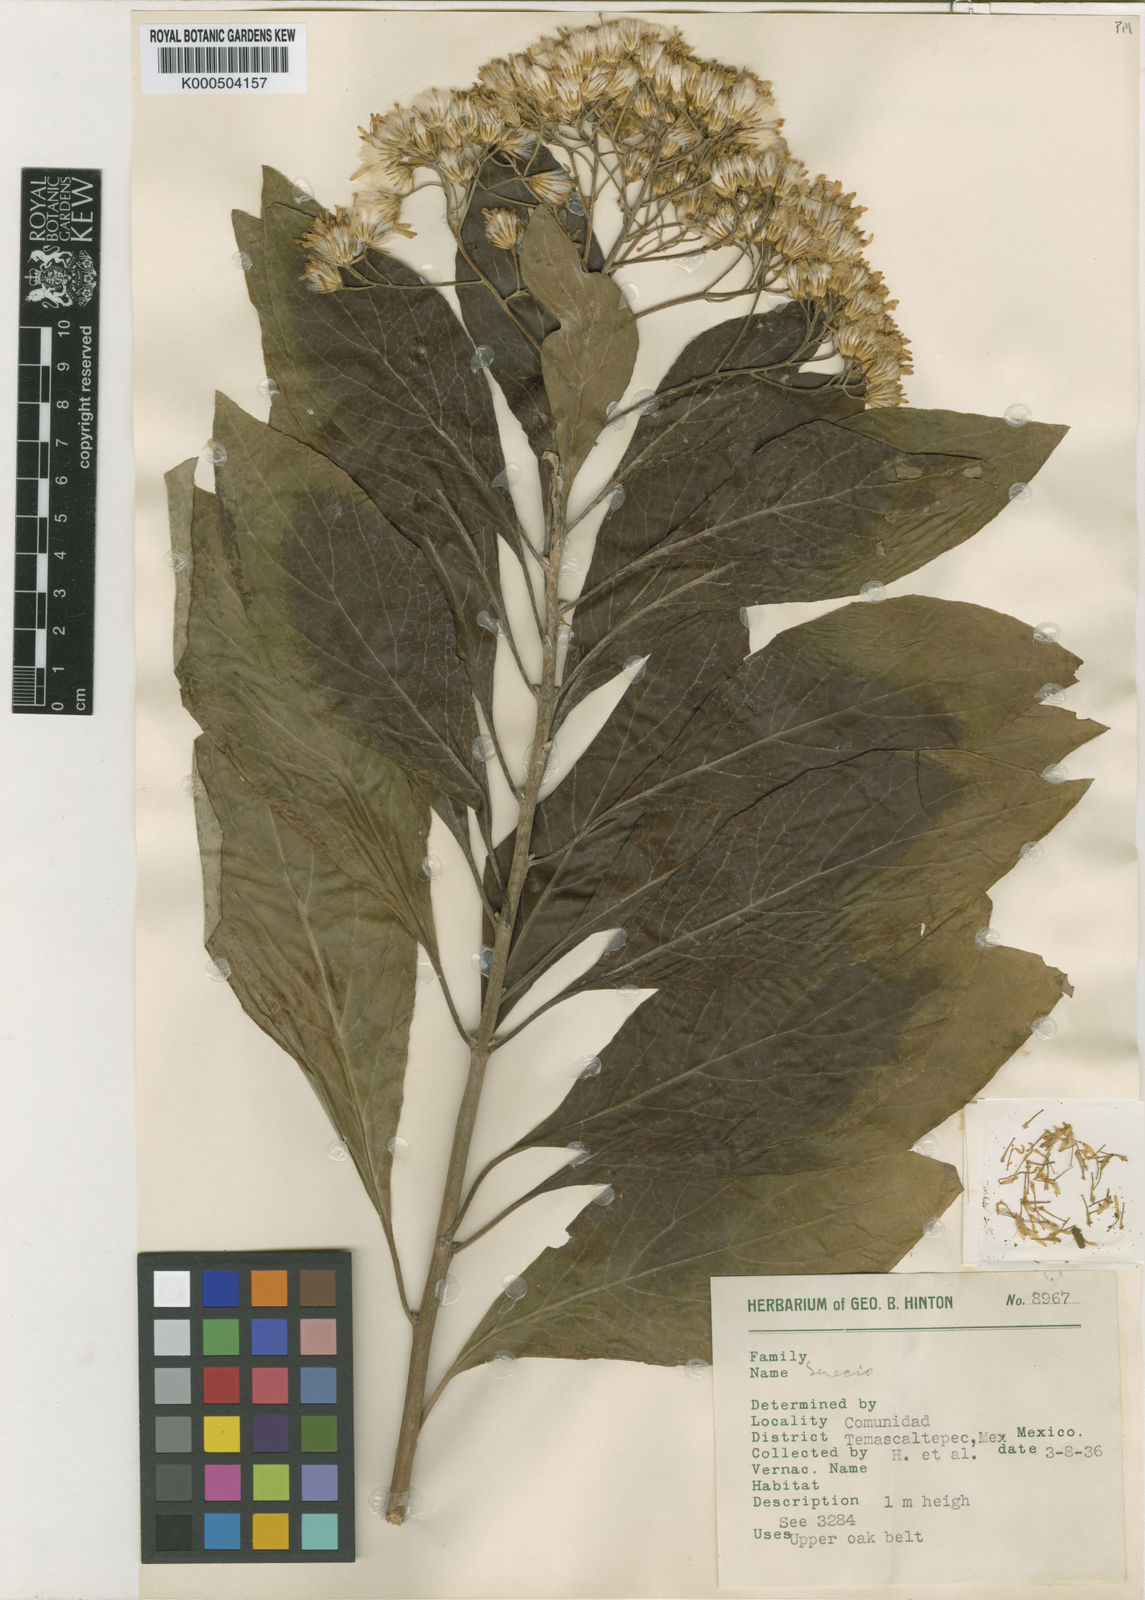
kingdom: Plantae
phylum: Tracheophyta
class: Magnoliopsida
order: Asterales
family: Asteraceae
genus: Roldana
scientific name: Roldana hintonii
